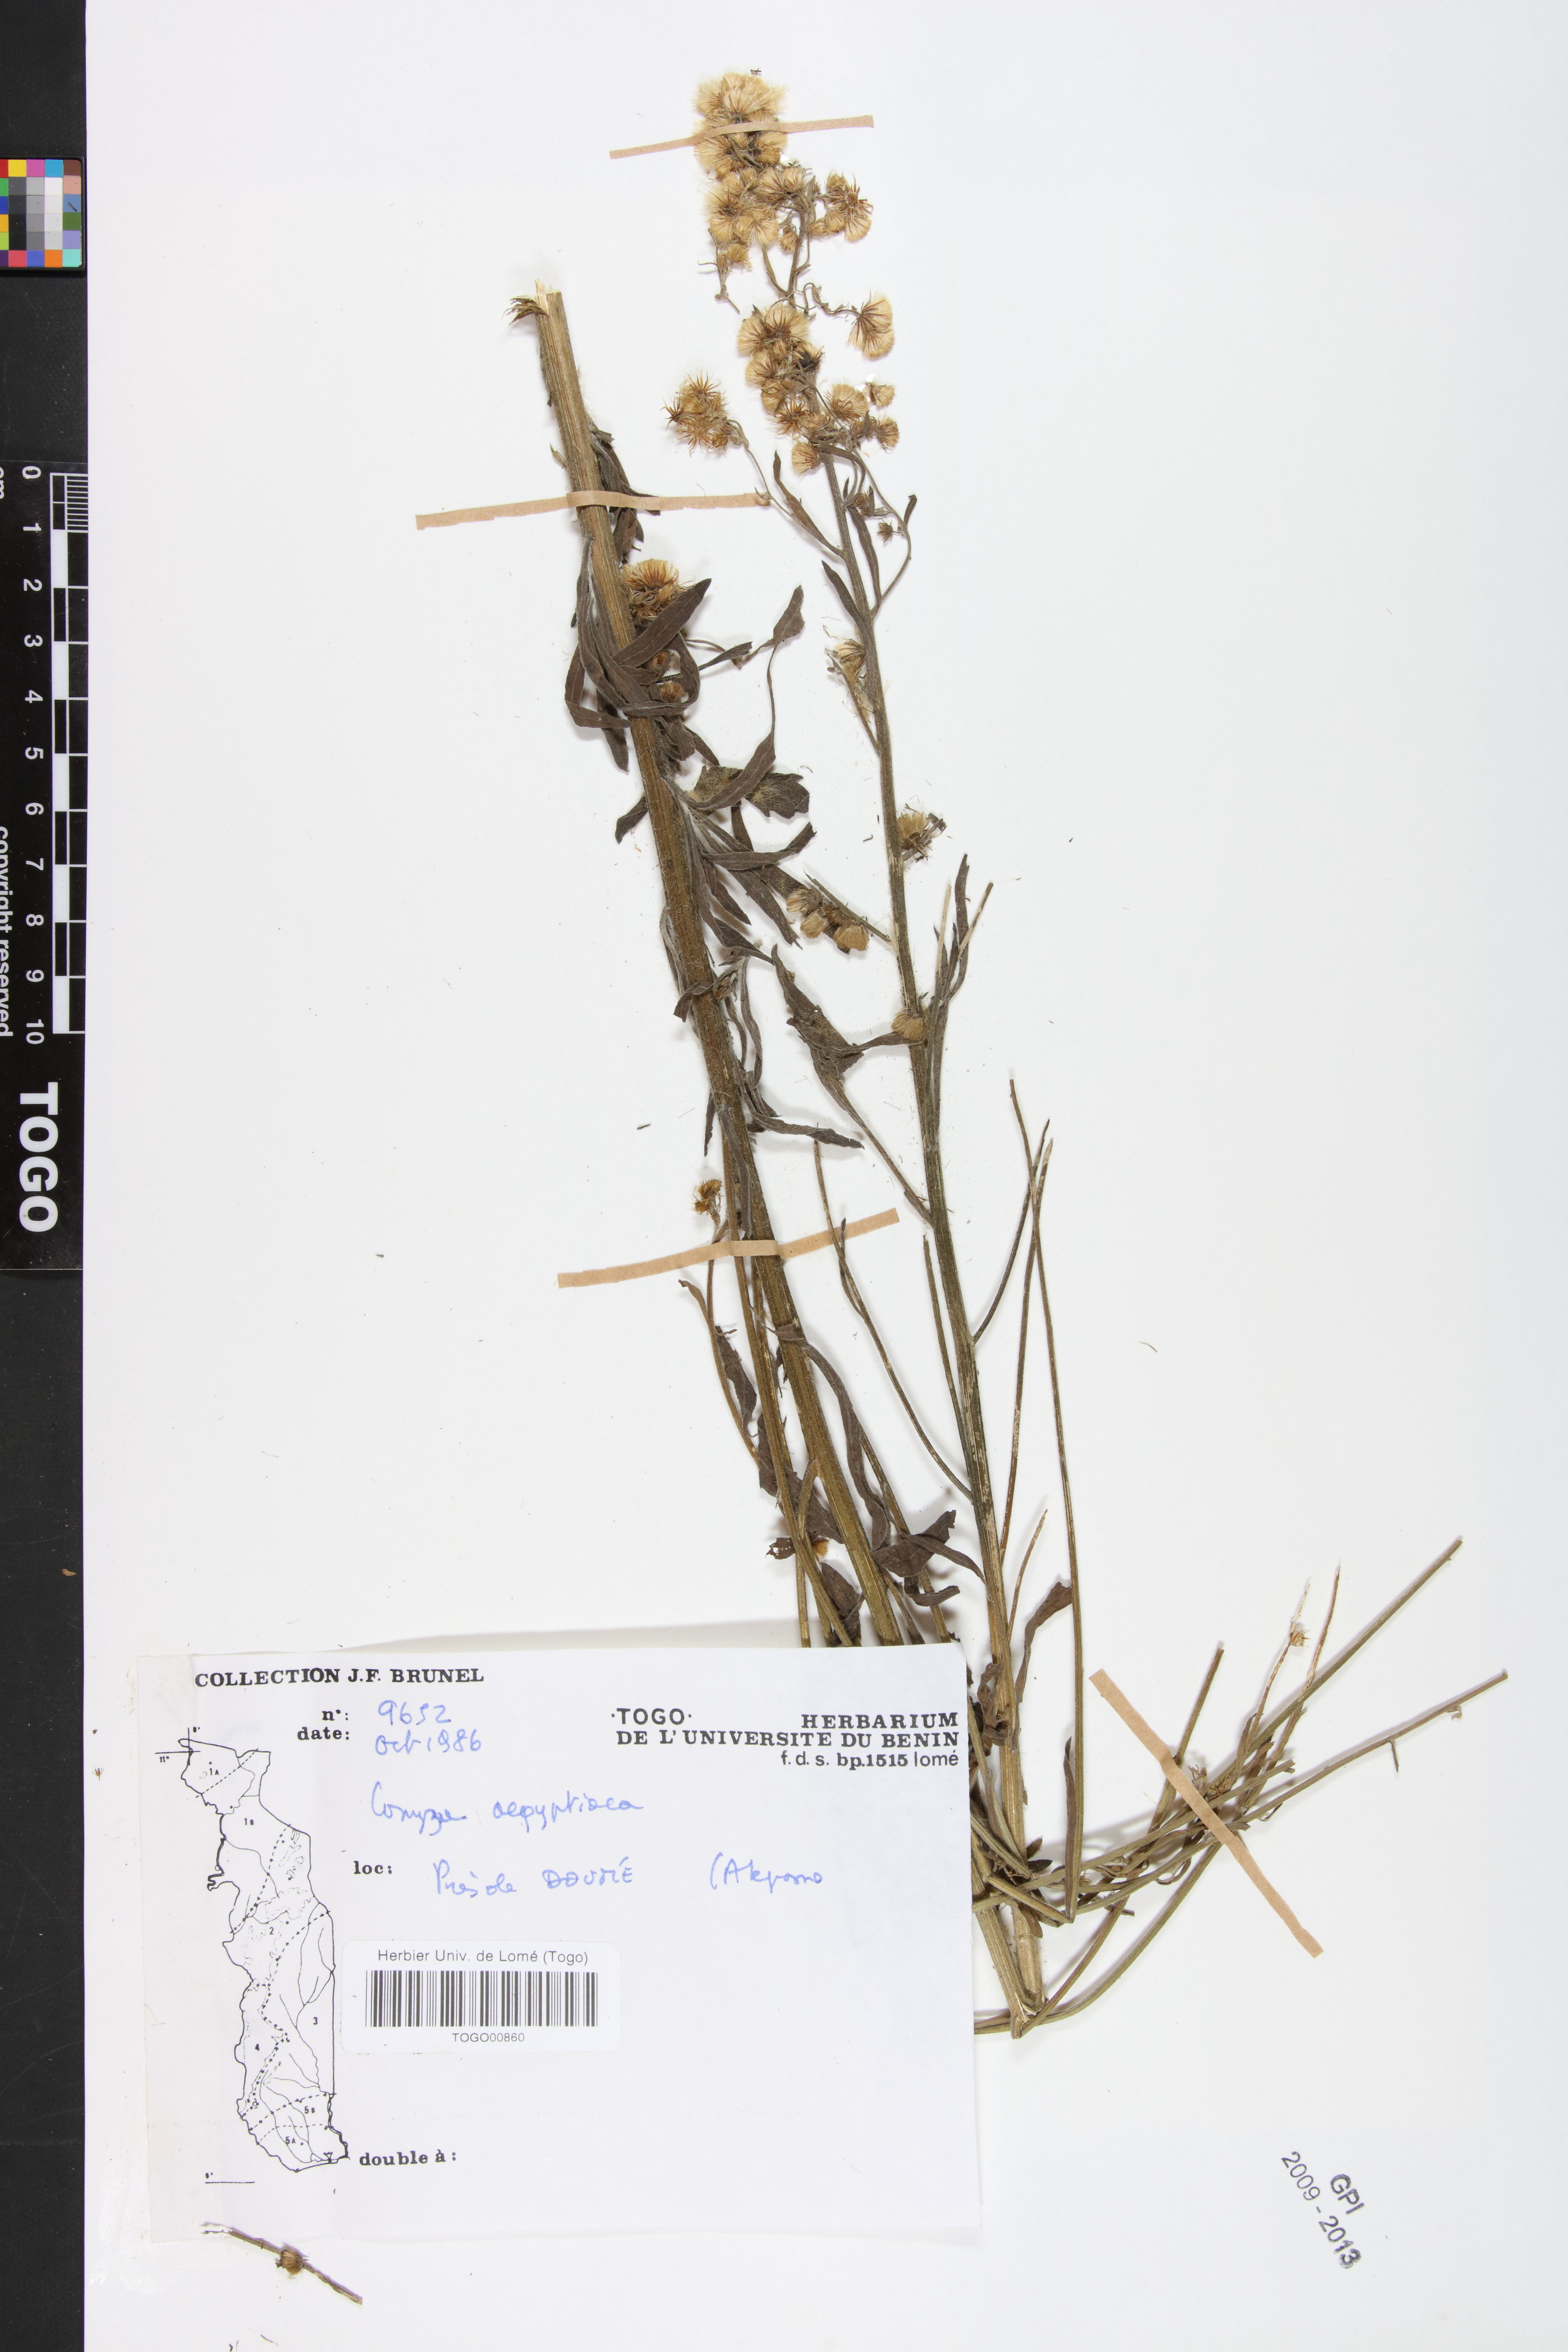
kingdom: Plantae
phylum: Tracheophyta
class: Magnoliopsida
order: Asterales
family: Asteraceae
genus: Nidorella
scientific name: Nidorella aegyptiaca
